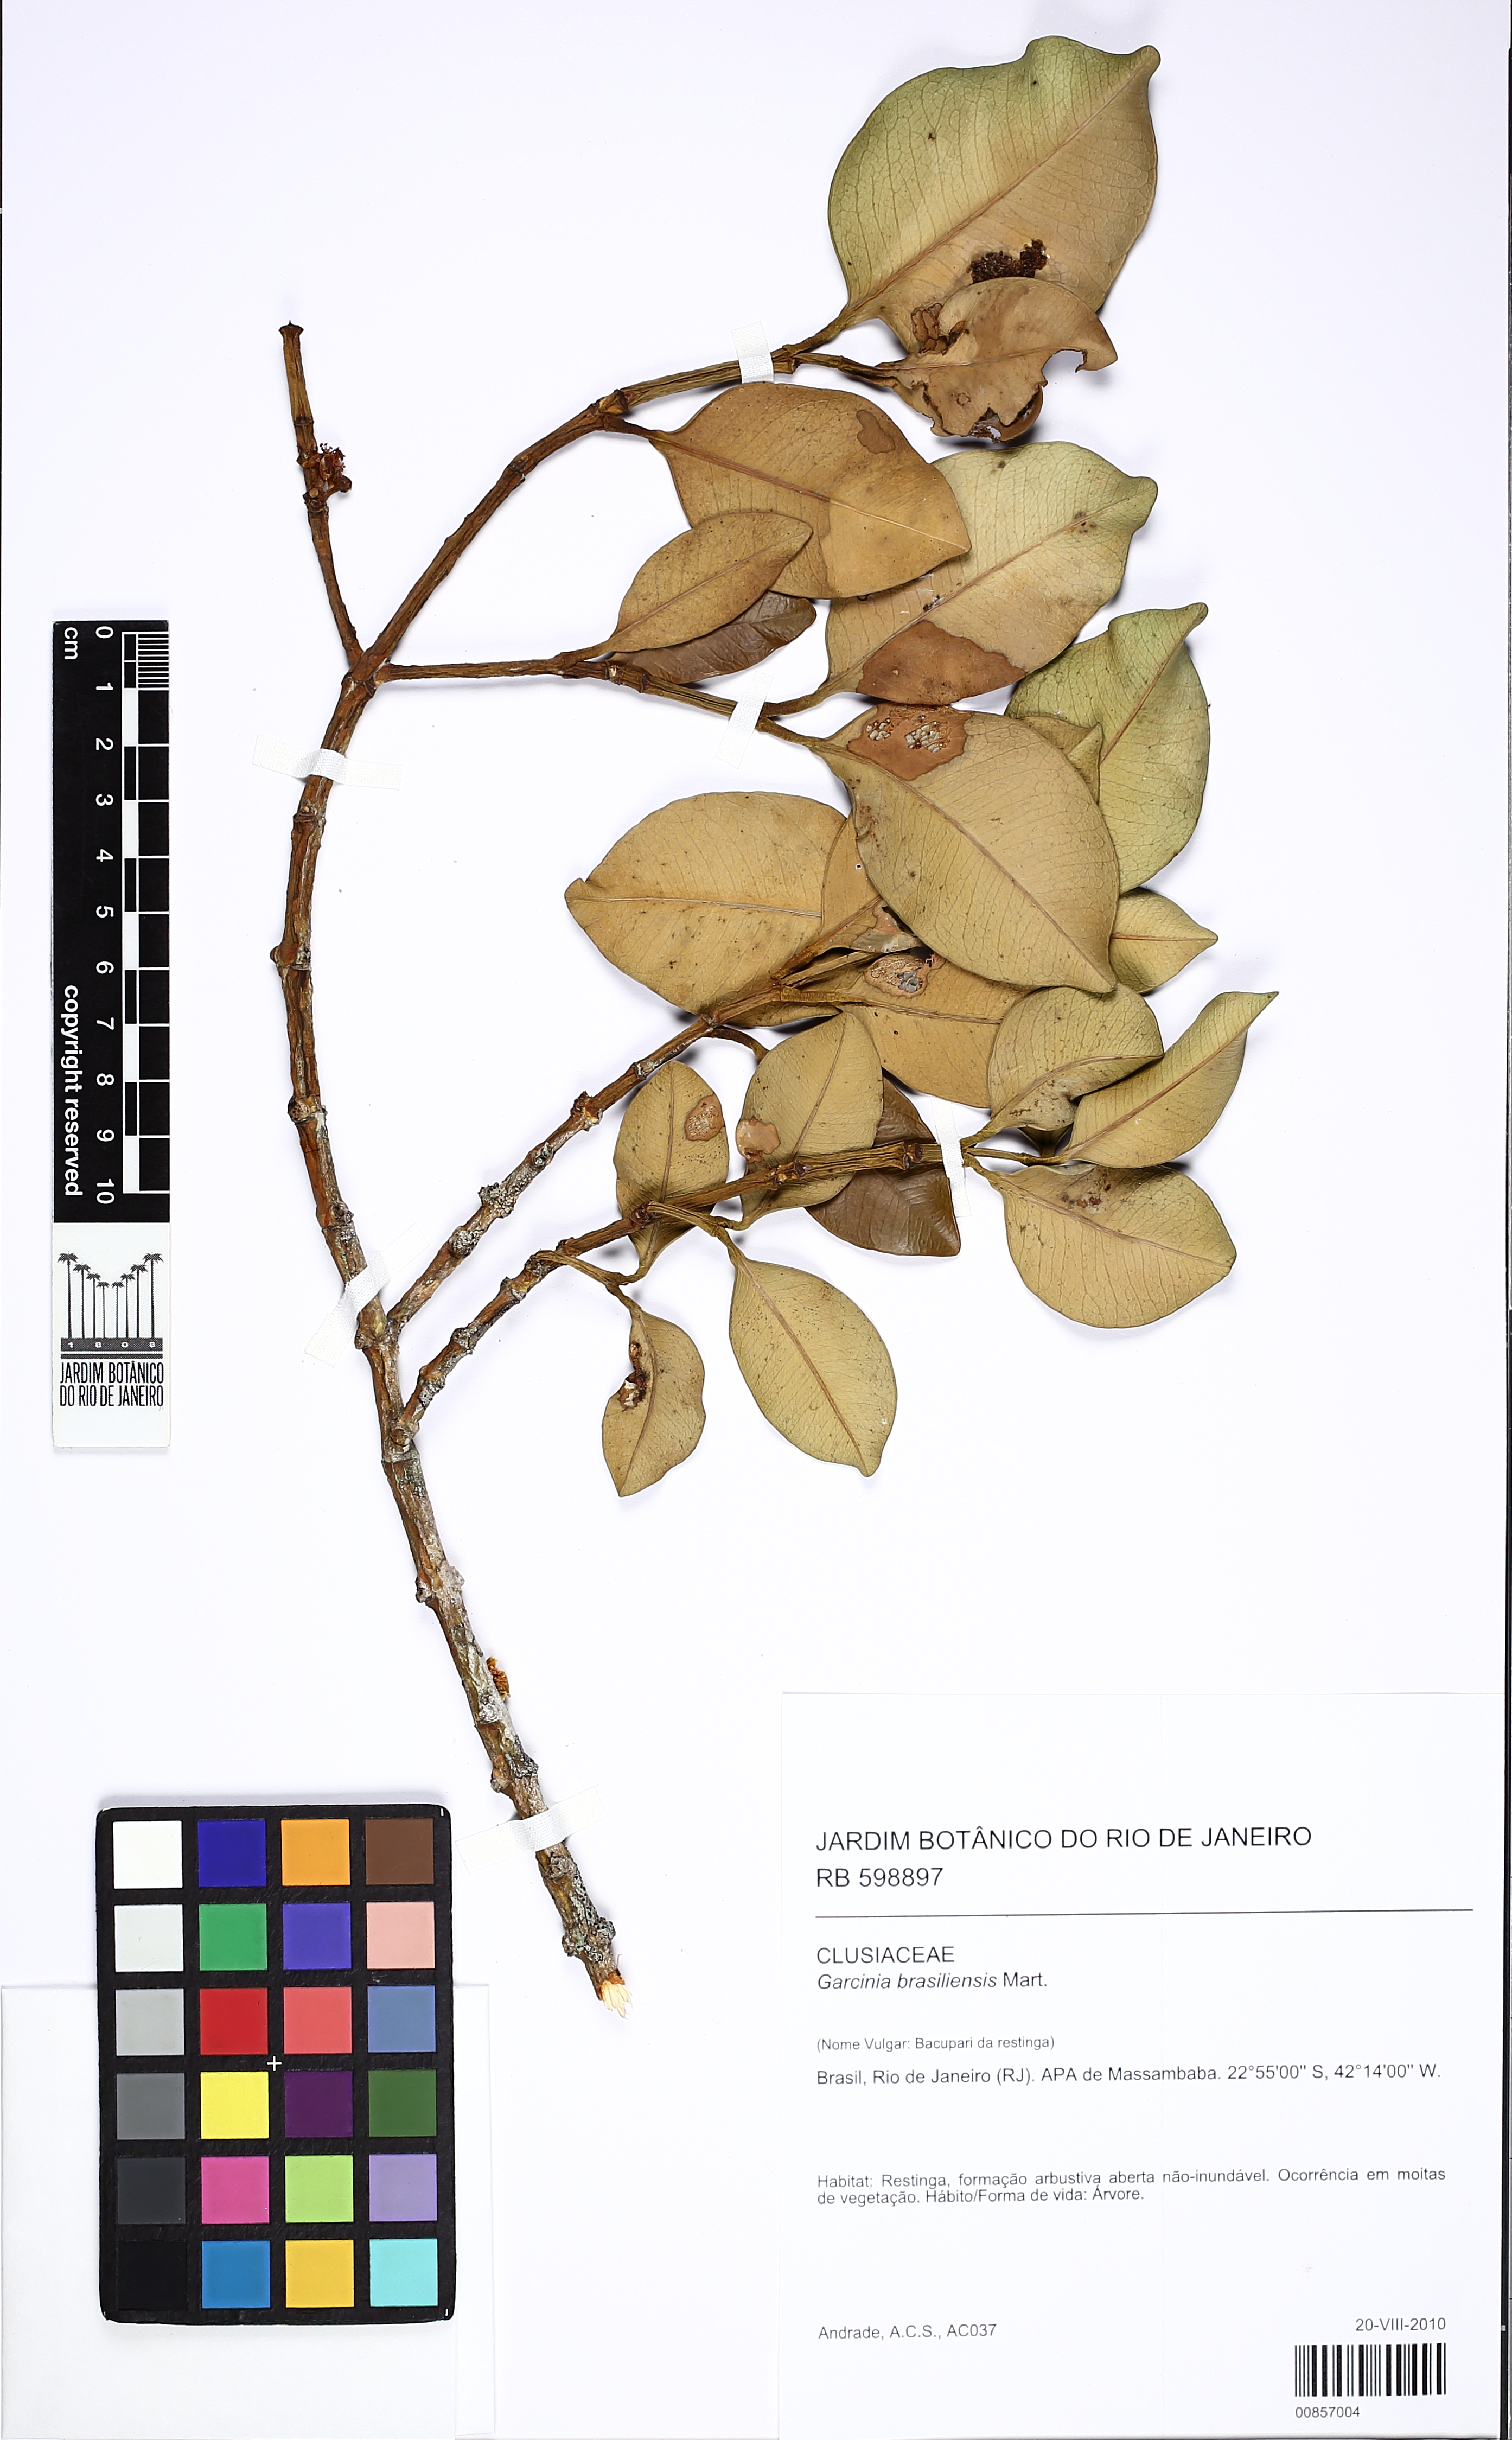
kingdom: Plantae
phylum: Tracheophyta
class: Magnoliopsida
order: Malpighiales
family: Clusiaceae
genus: Garcinia
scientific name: Garcinia brasiliensis
